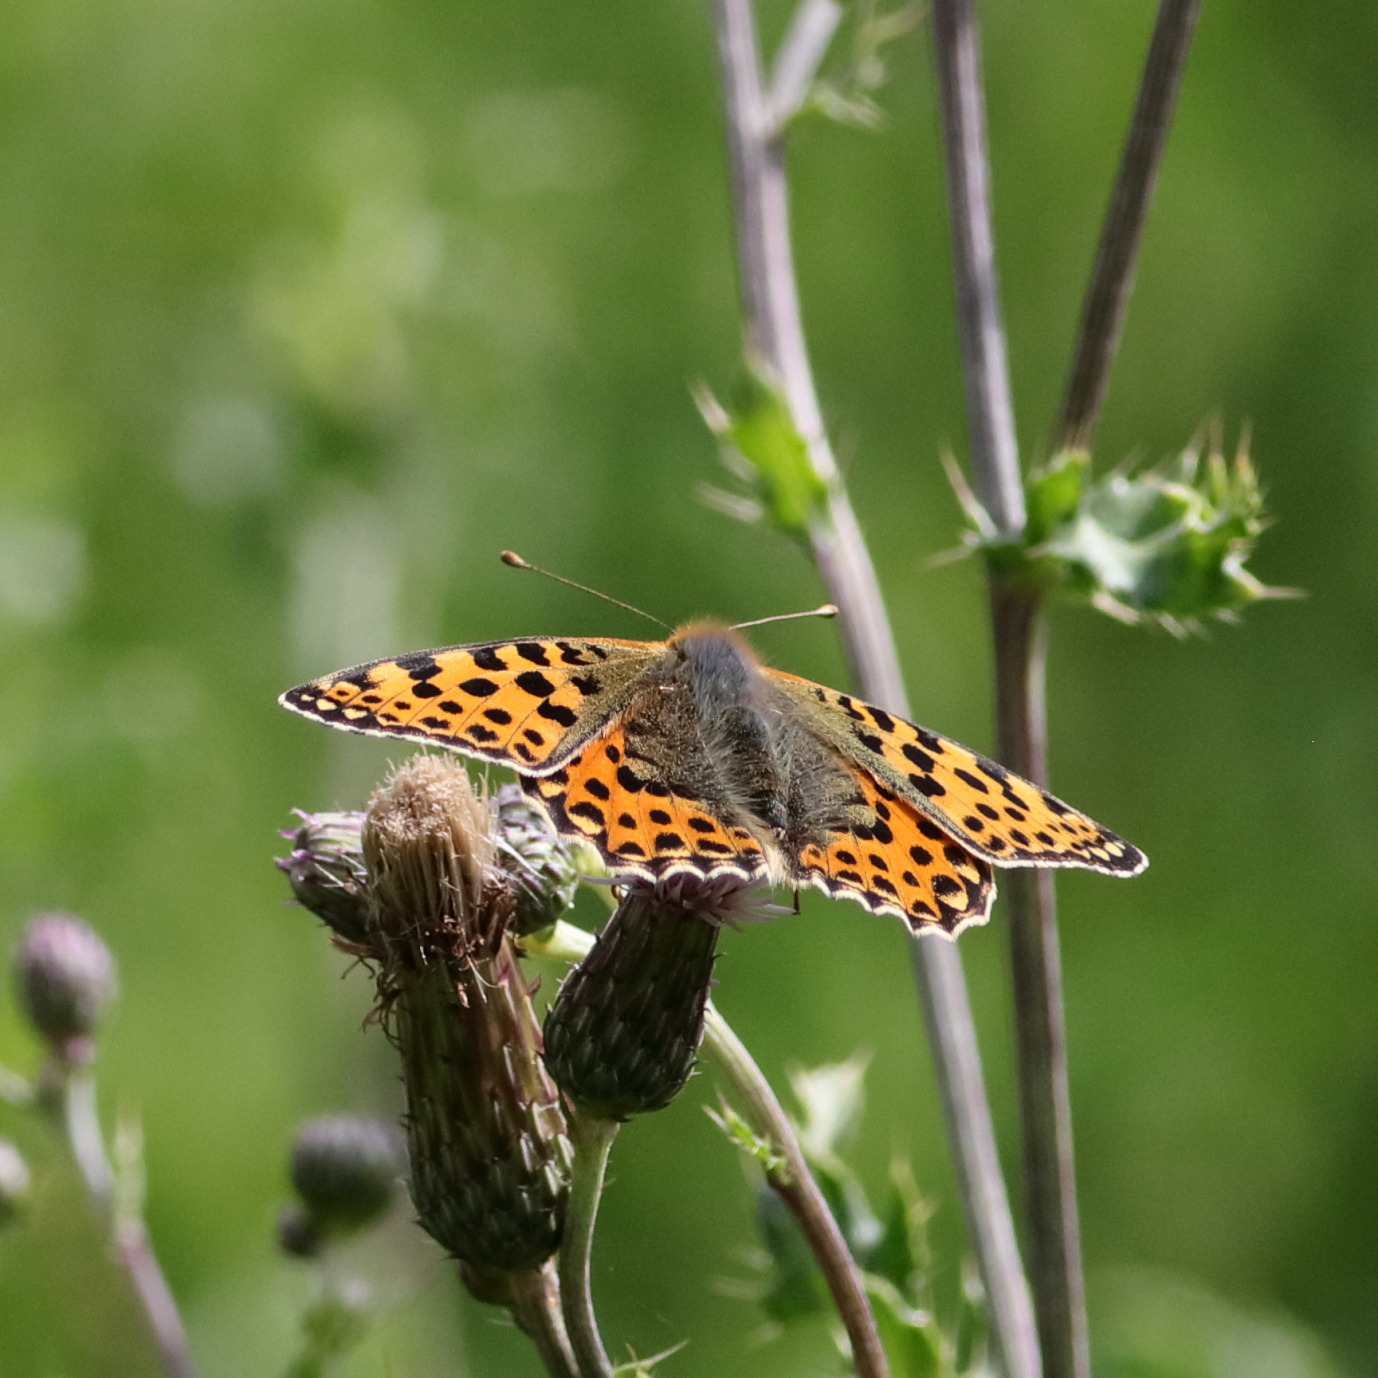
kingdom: Animalia
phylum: Arthropoda
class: Insecta
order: Lepidoptera
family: Nymphalidae
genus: Issoria
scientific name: Issoria lathonia
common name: Storplettet perlemorsommerfugl
